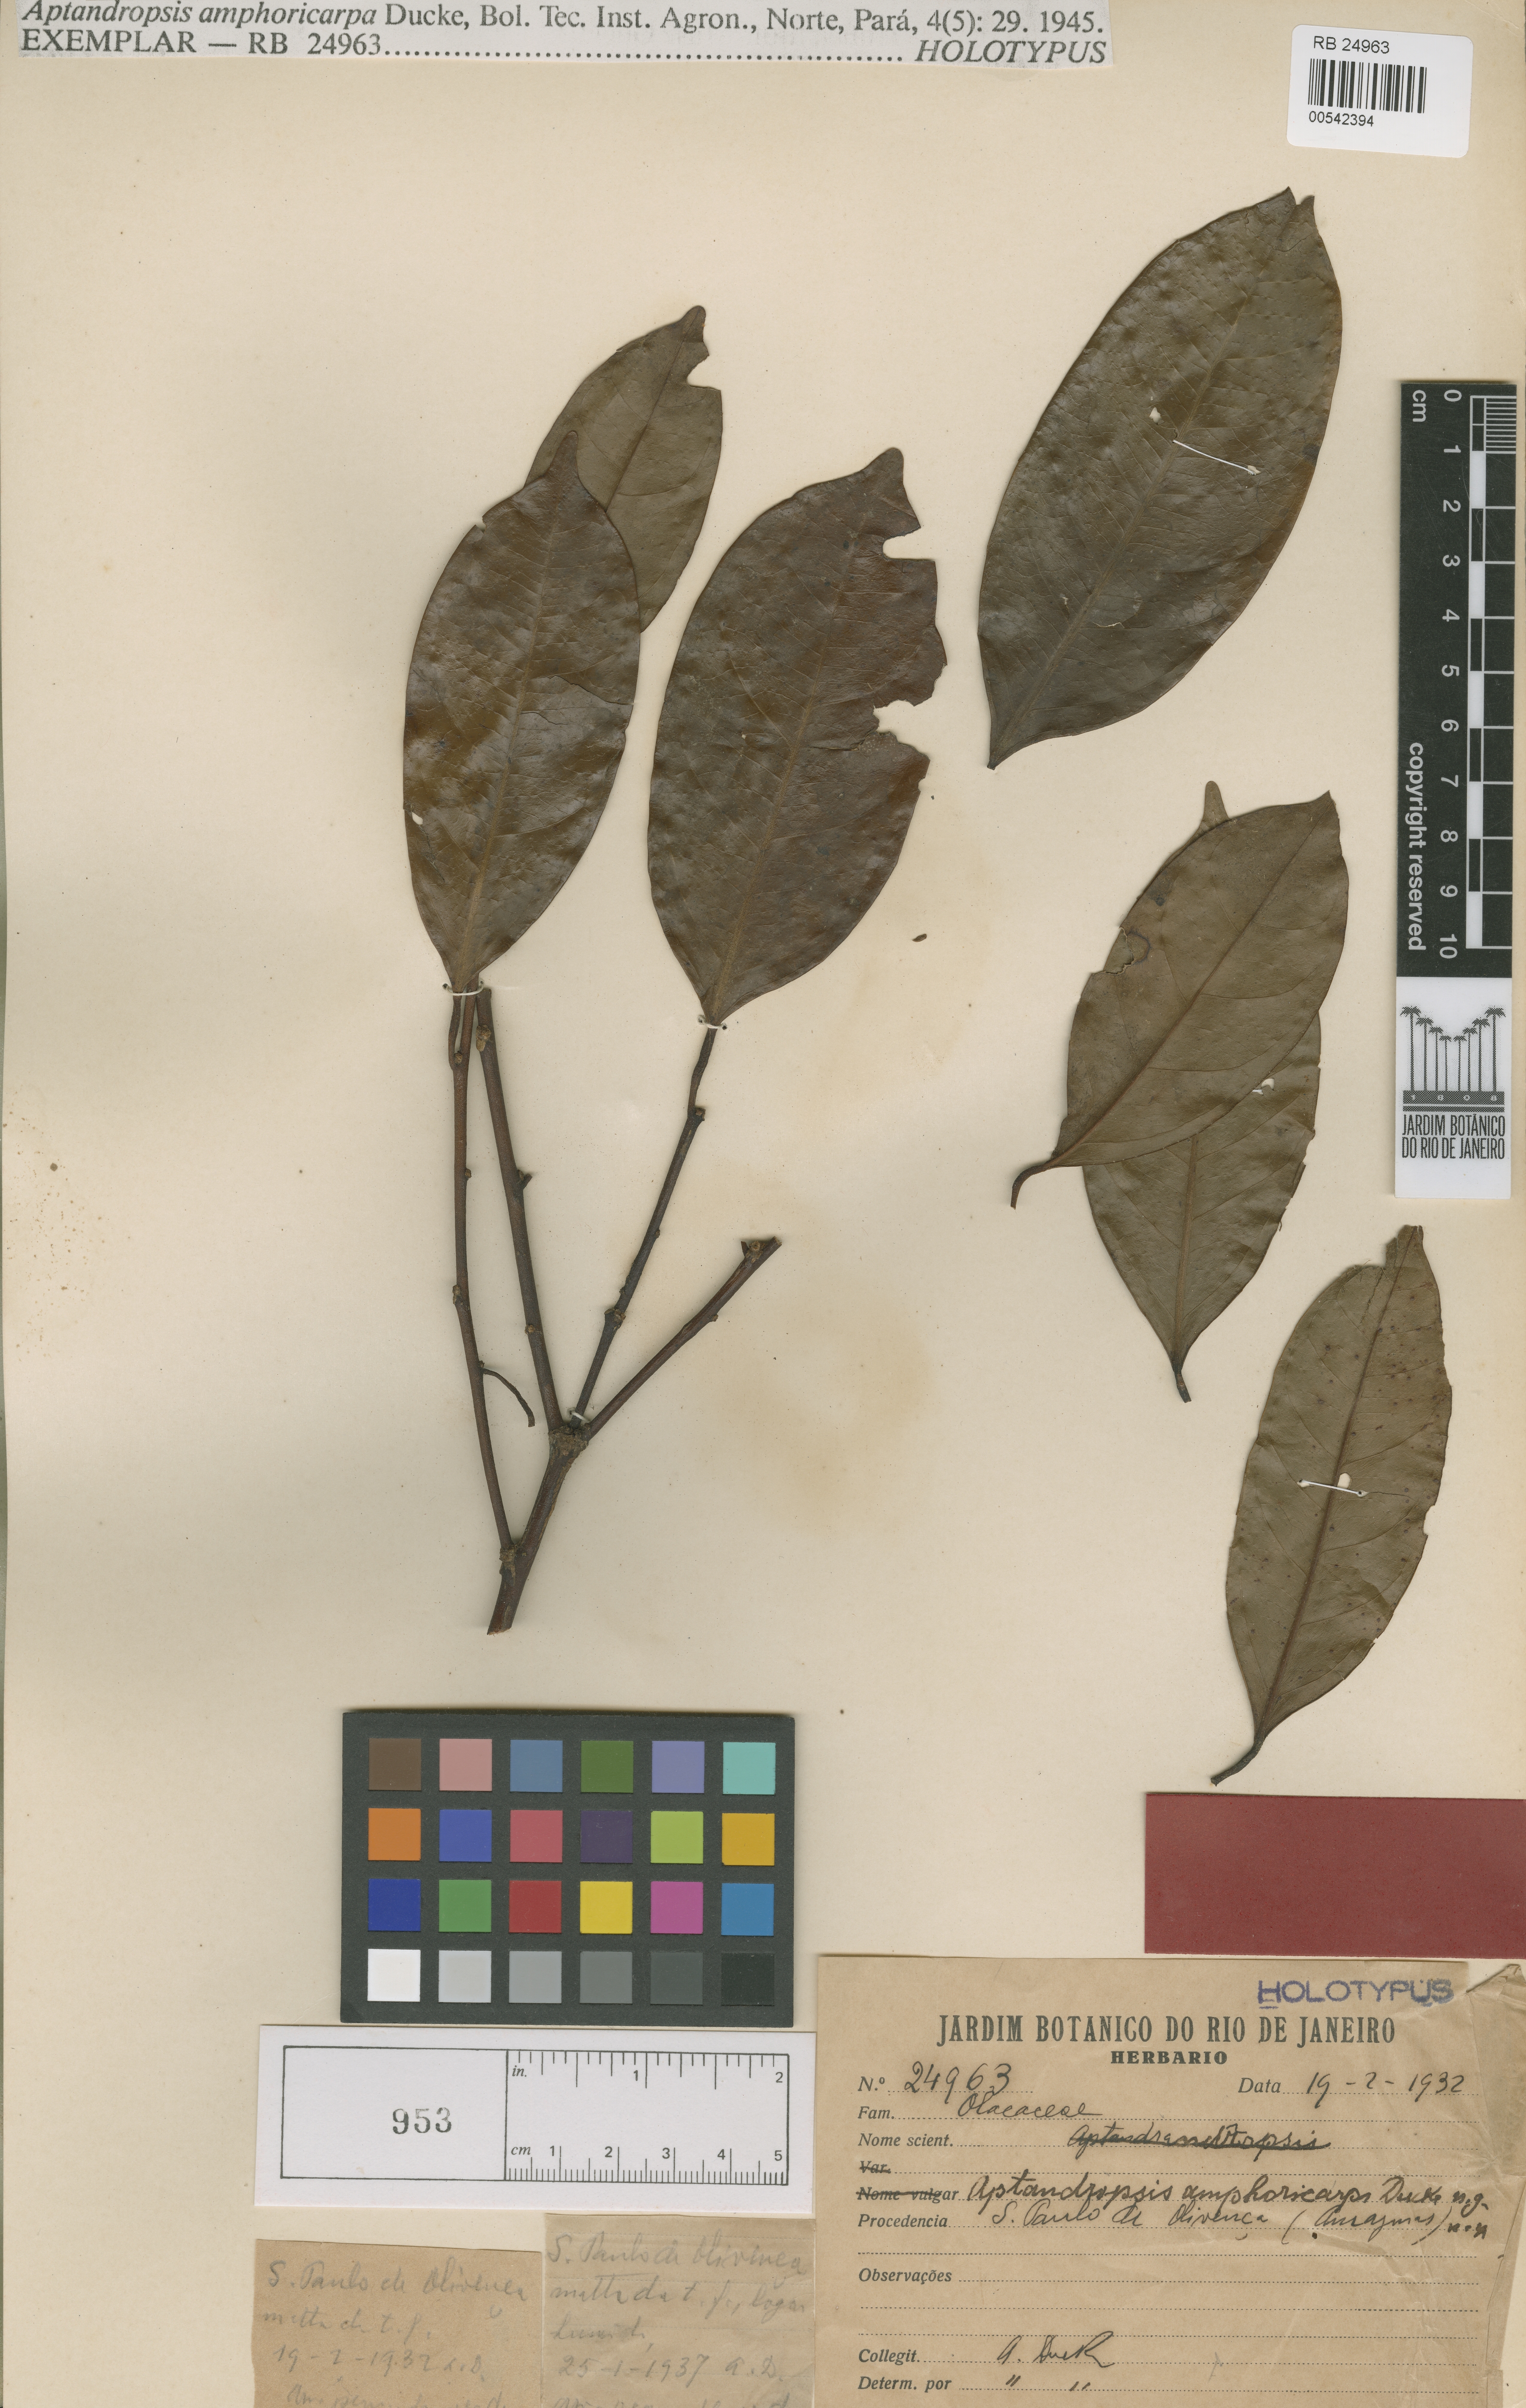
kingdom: Plantae
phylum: Tracheophyta
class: Magnoliopsida
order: Santalales
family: Erythropalaceae
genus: Heisteria
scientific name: Heisteria amphoricarpa
